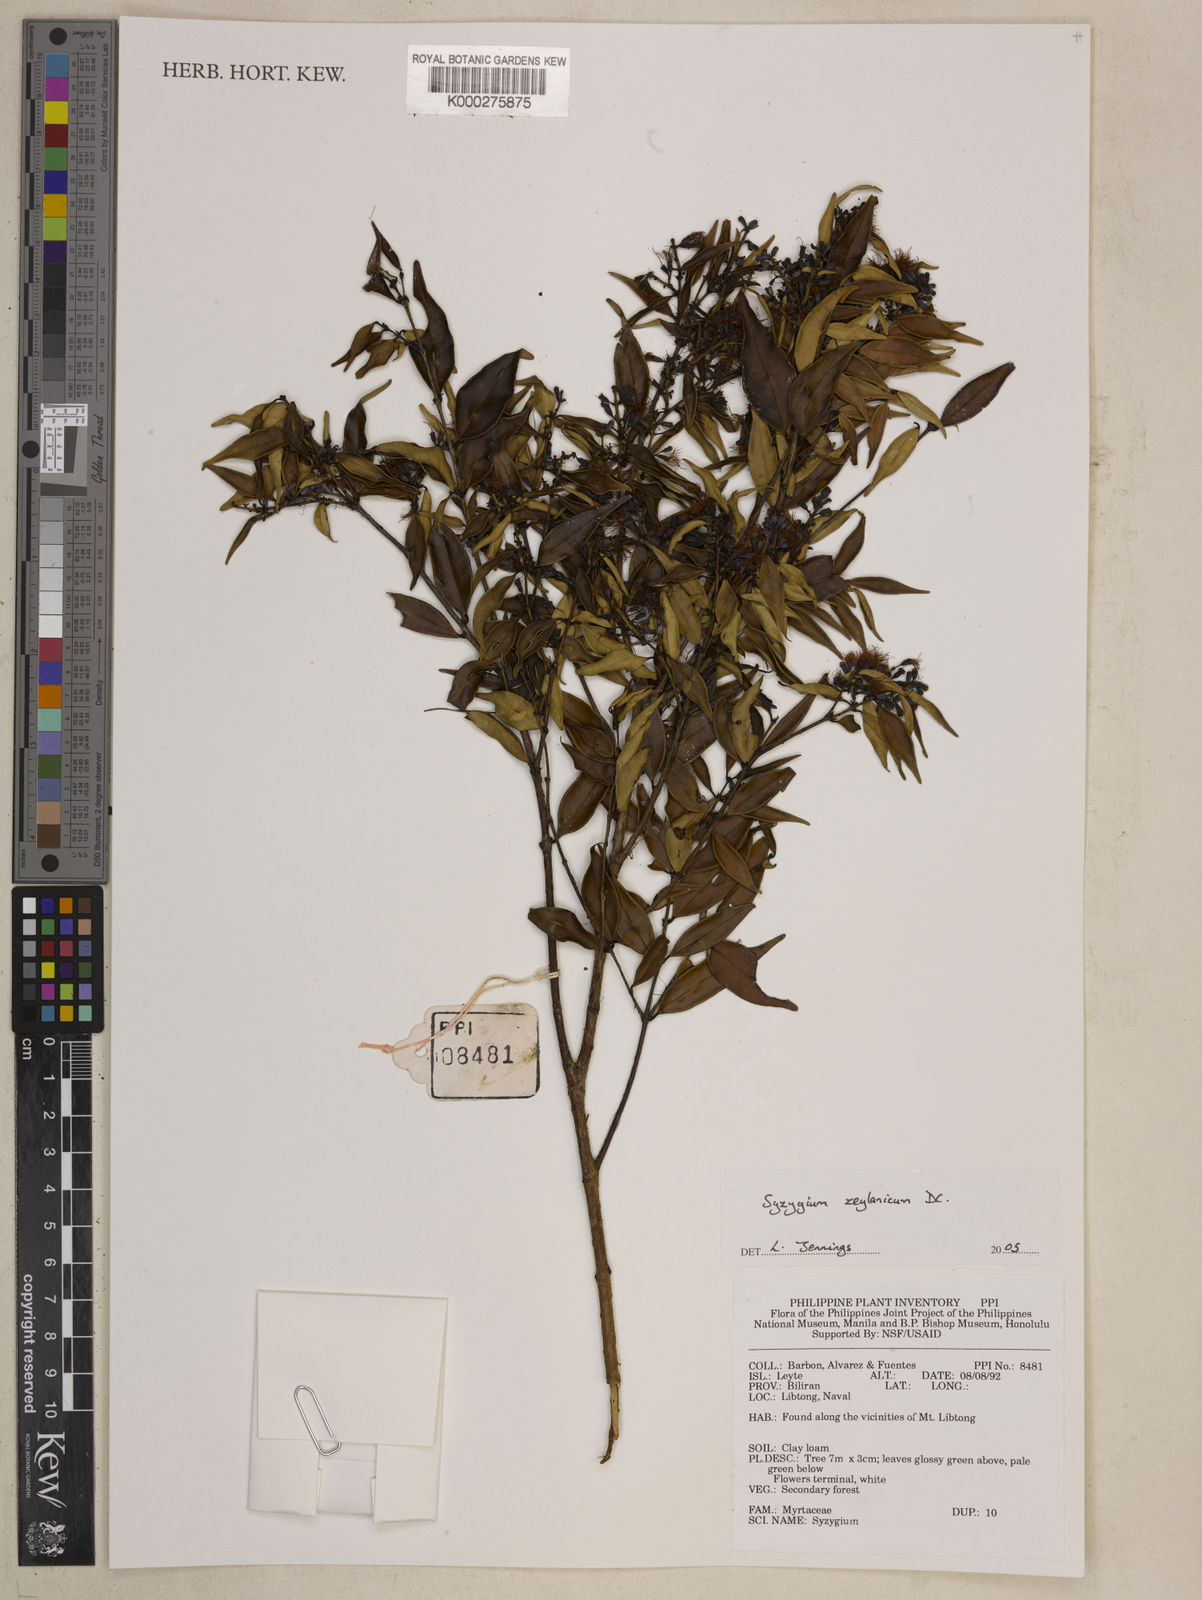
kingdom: Plantae
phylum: Tracheophyta
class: Magnoliopsida
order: Myrtales
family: Myrtaceae
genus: Syzygium
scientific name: Syzygium zeylanicum
